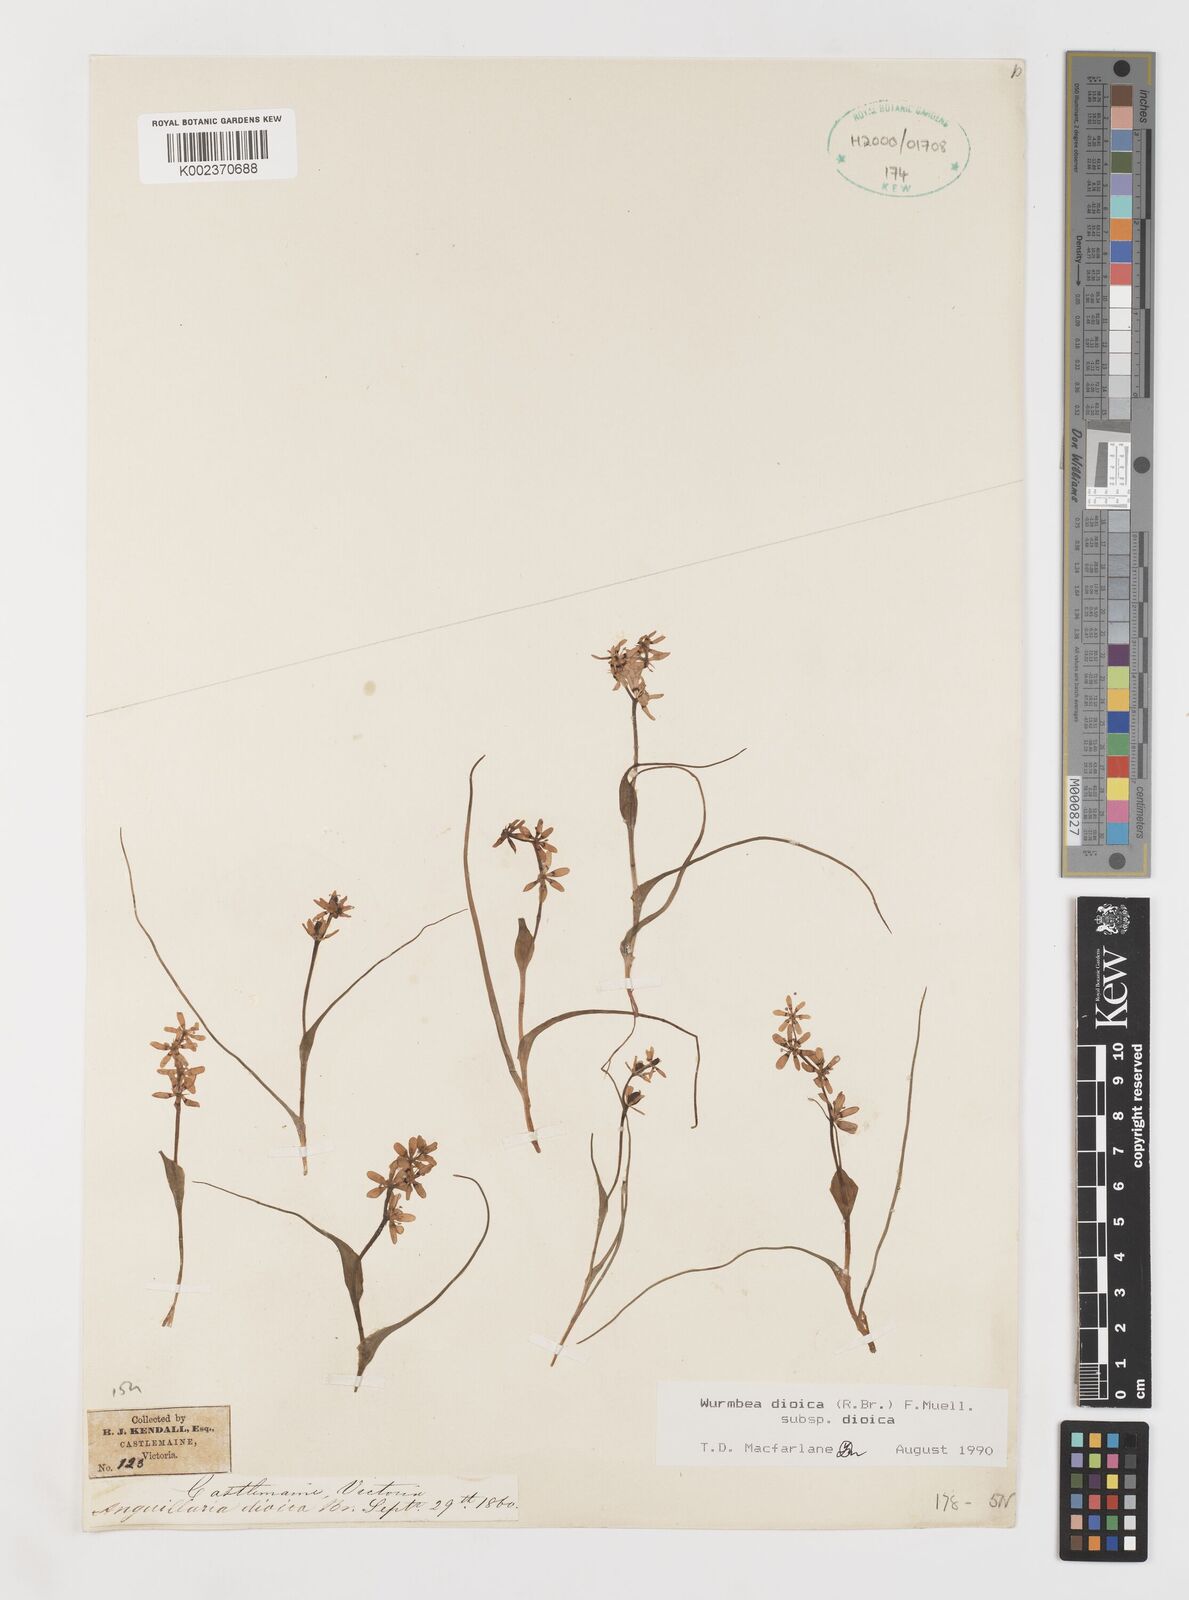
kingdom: Plantae
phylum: Tracheophyta
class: Liliopsida
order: Liliales
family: Colchicaceae
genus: Wurmbea
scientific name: Wurmbea dioica
